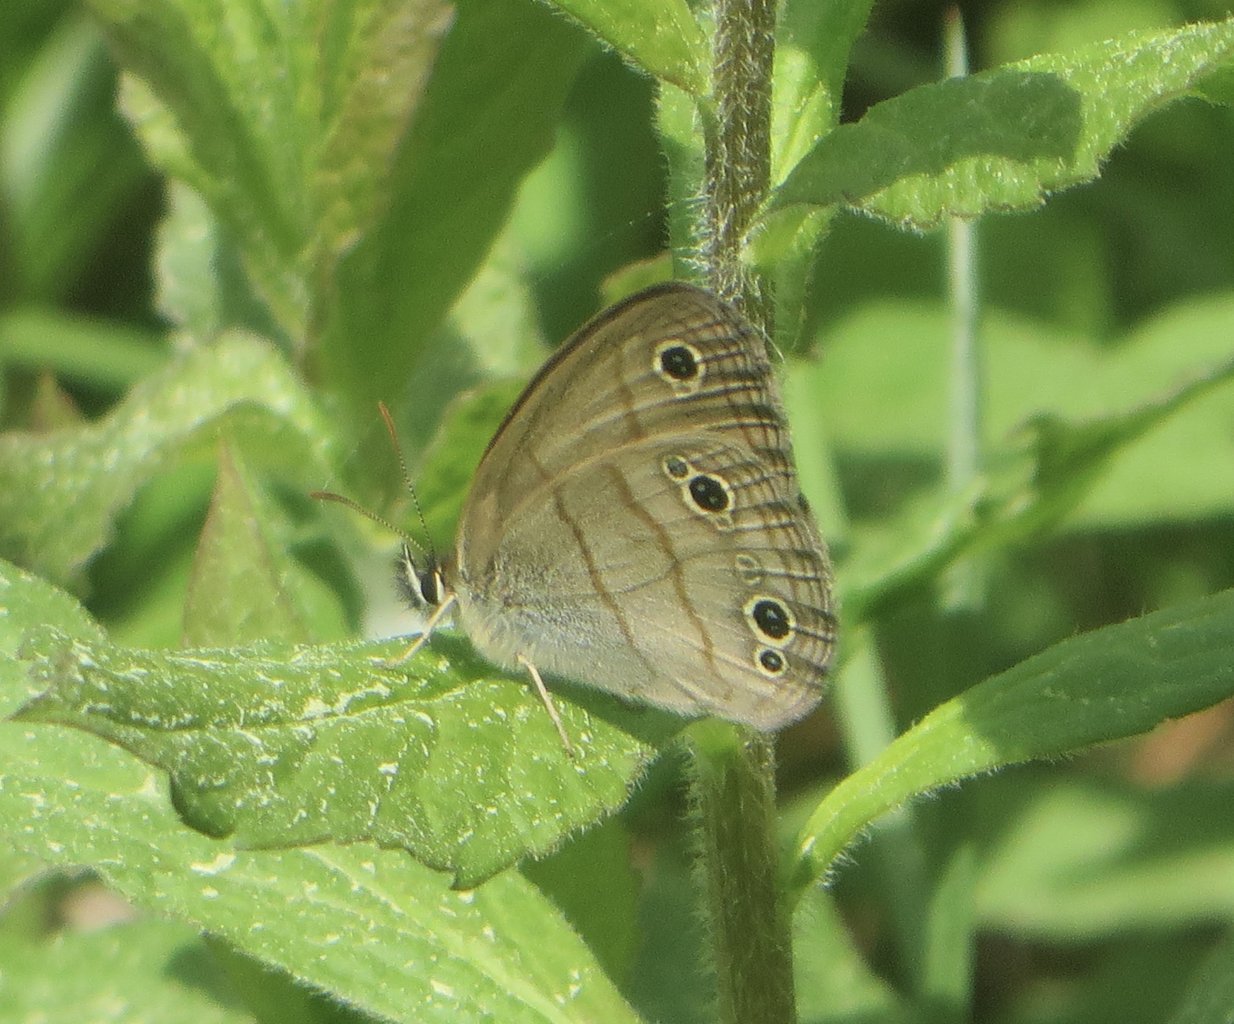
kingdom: Animalia
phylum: Arthropoda
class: Insecta
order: Lepidoptera
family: Nymphalidae
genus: Euptychia
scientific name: Euptychia cymela
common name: Little Wood Satyr
